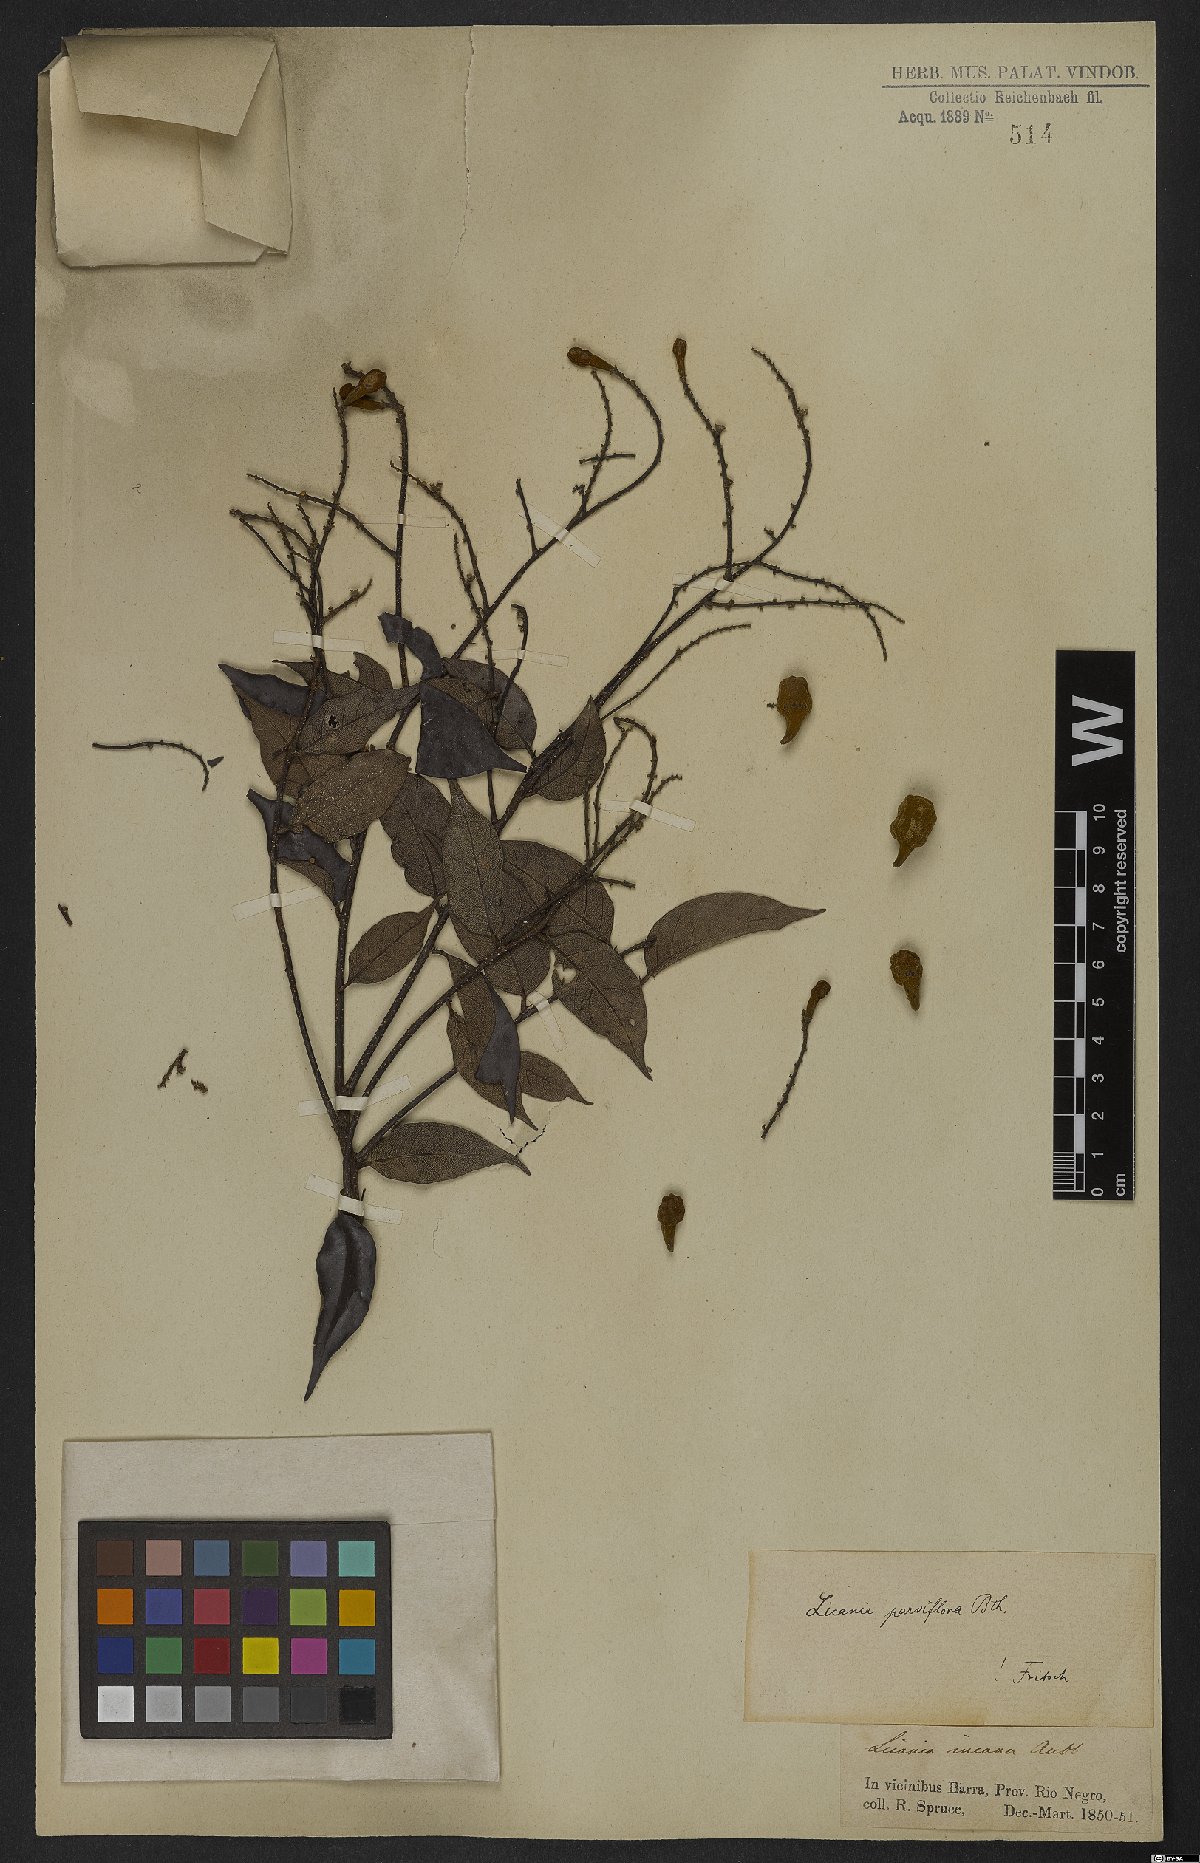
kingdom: Plantae
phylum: Tracheophyta
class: Magnoliopsida
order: Malpighiales
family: Chrysobalanaceae
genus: Leptobalanus
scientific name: Leptobalanus parviflorus
